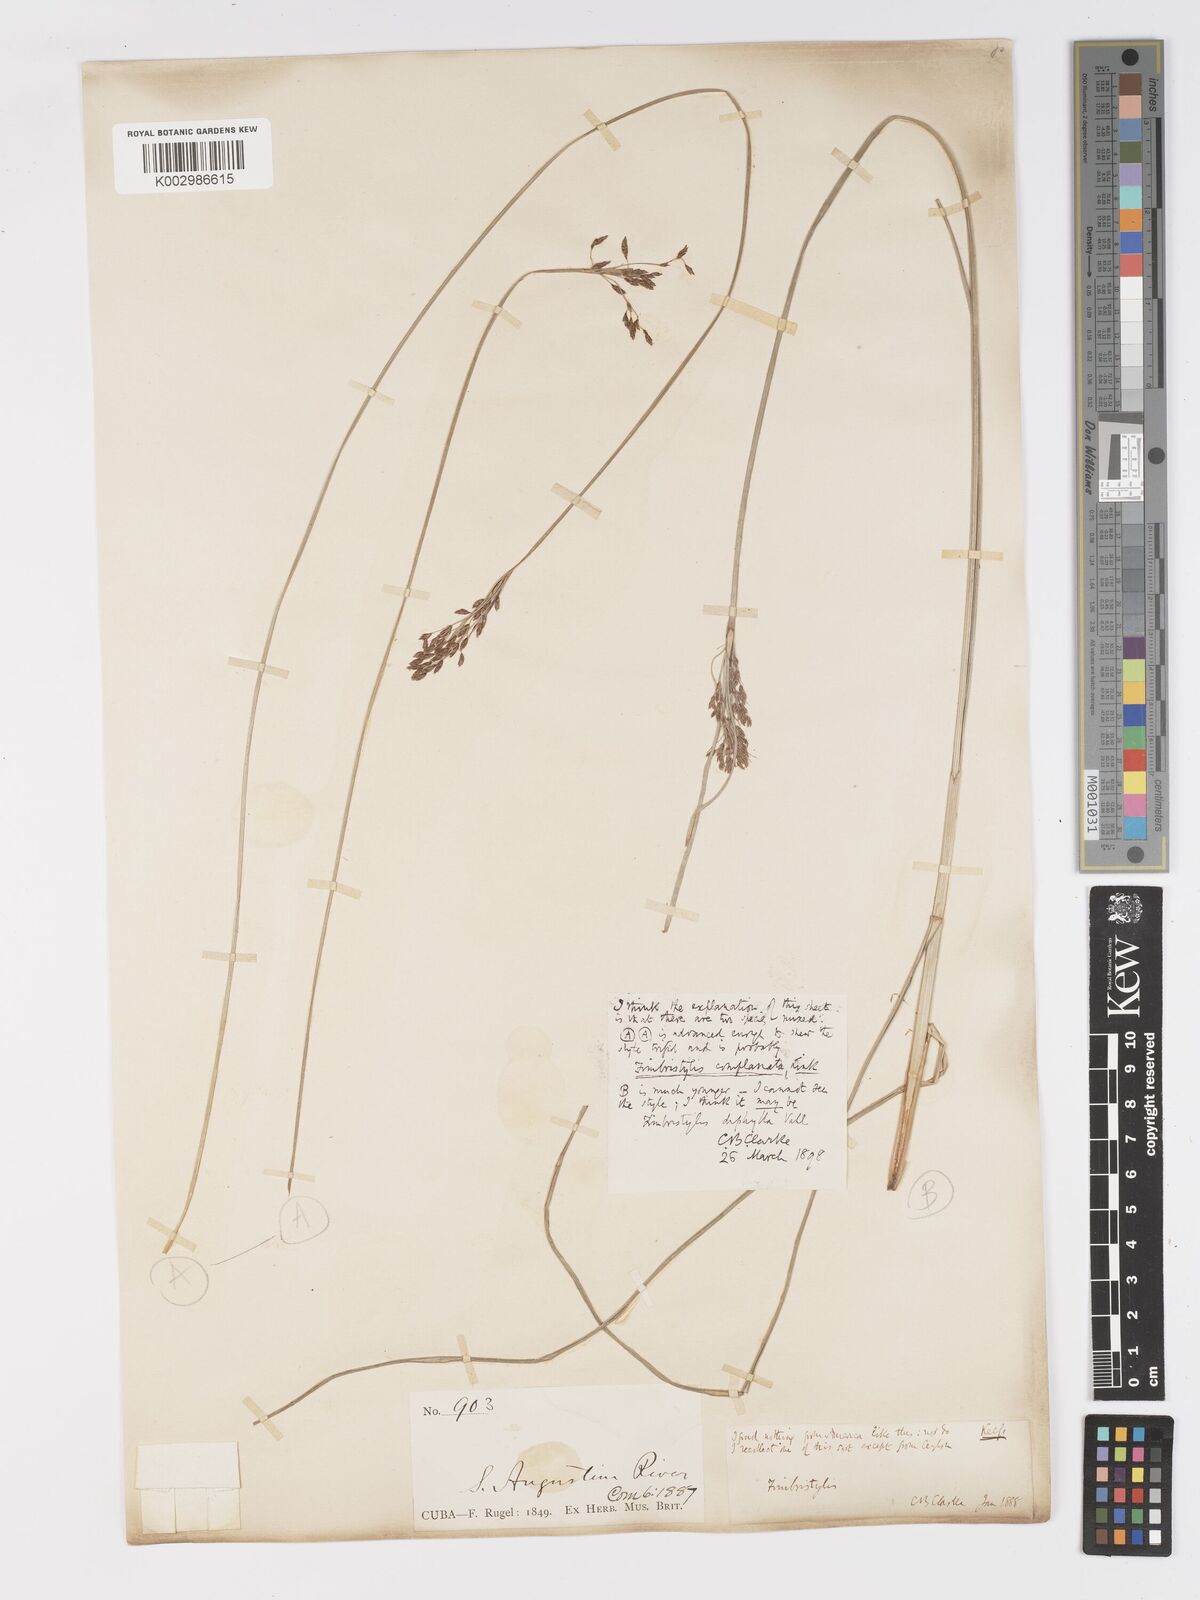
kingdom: Plantae
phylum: Tracheophyta
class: Liliopsida
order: Poales
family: Cyperaceae
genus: Fimbristylis
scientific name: Fimbristylis complanata
